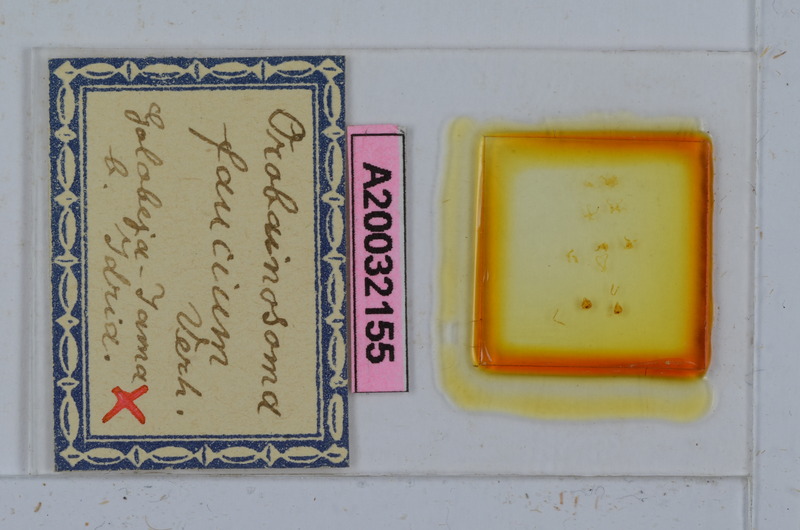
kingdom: Animalia
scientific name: Animalia
